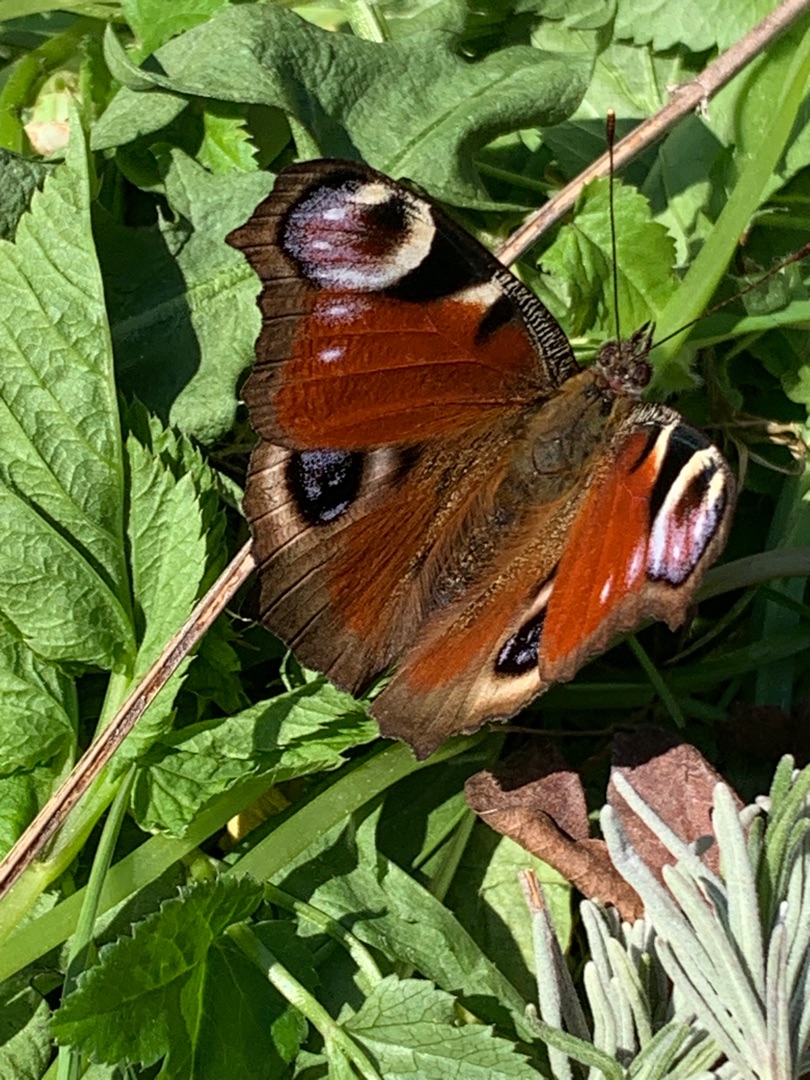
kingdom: Animalia
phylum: Arthropoda
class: Insecta
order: Lepidoptera
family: Nymphalidae
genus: Aglais
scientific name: Aglais io
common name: Dagpåfugleøje
